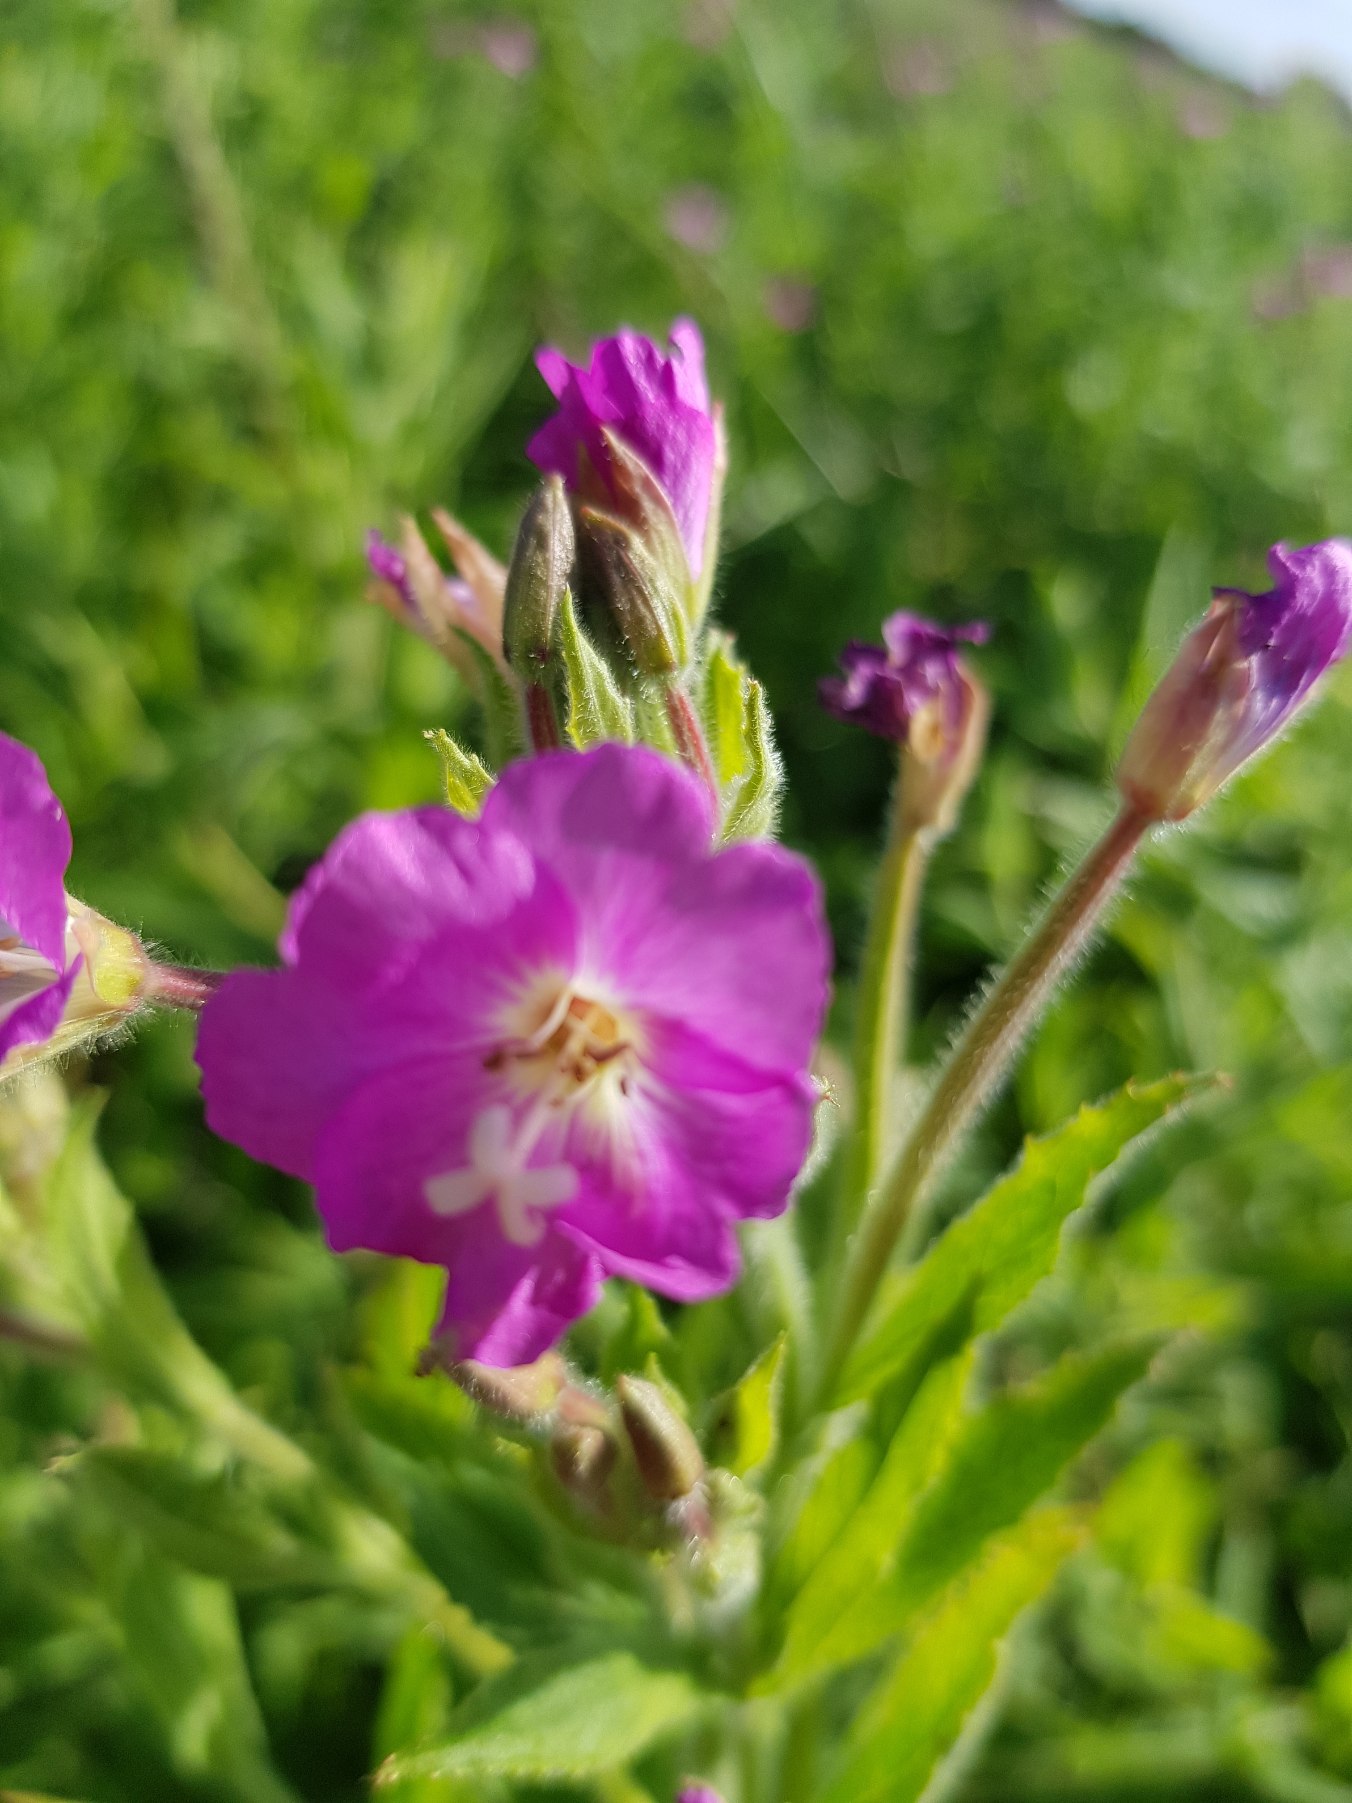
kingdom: Plantae
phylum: Tracheophyta
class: Magnoliopsida
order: Myrtales
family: Onagraceae
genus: Epilobium
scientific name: Epilobium hirsutum
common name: Lådden dueurt
